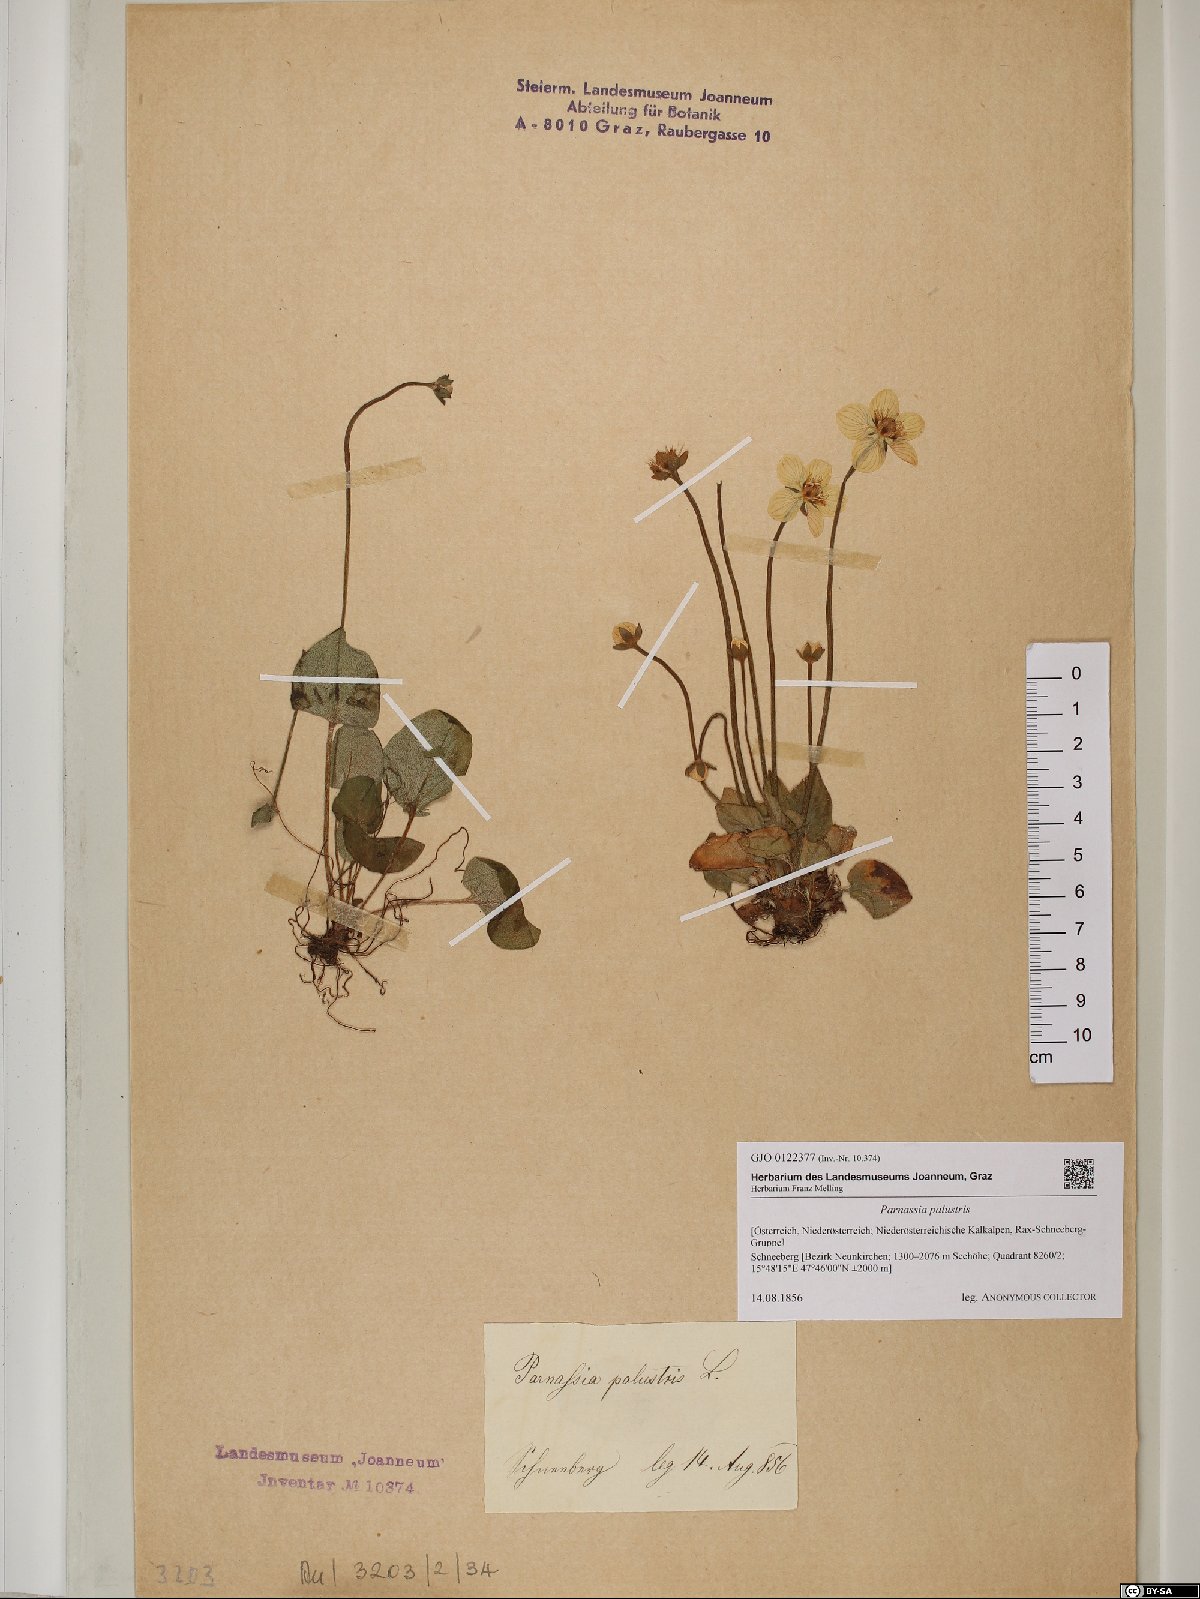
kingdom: Plantae
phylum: Tracheophyta
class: Magnoliopsida
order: Celastrales
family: Parnassiaceae
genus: Parnassia
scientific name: Parnassia palustris
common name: Grass-of-parnassus
